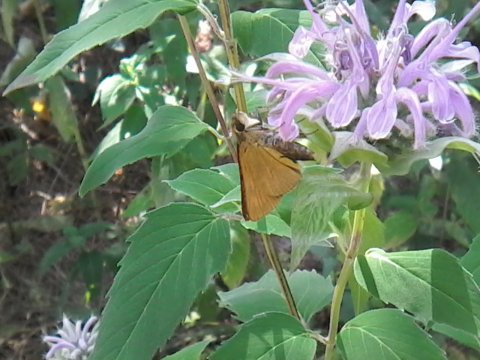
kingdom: Animalia
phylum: Arthropoda
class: Insecta
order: Lepidoptera
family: Hesperiidae
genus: Atrytone
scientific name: Atrytone delaware
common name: Delaware Skipper
